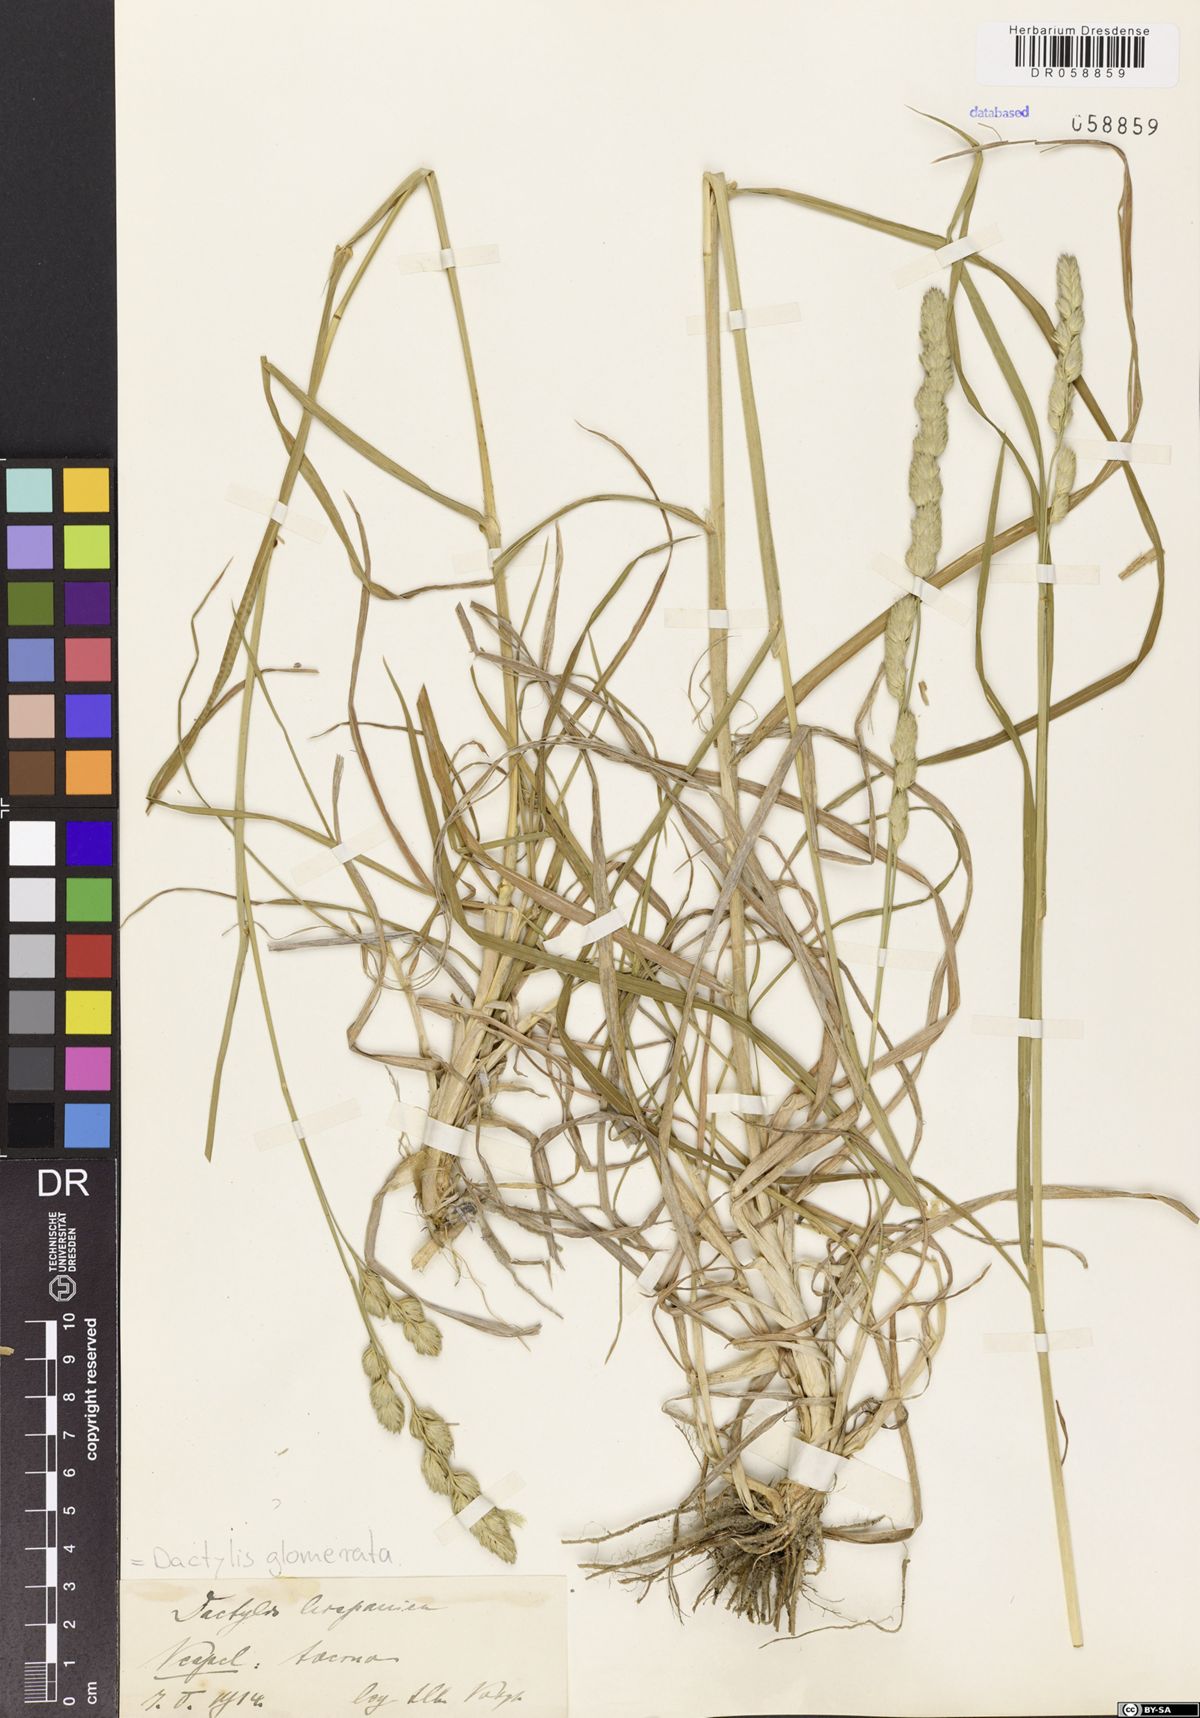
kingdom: Plantae
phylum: Tracheophyta
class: Liliopsida
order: Poales
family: Poaceae
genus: Dactylis
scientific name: Dactylis glomerata
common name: Orchardgrass
